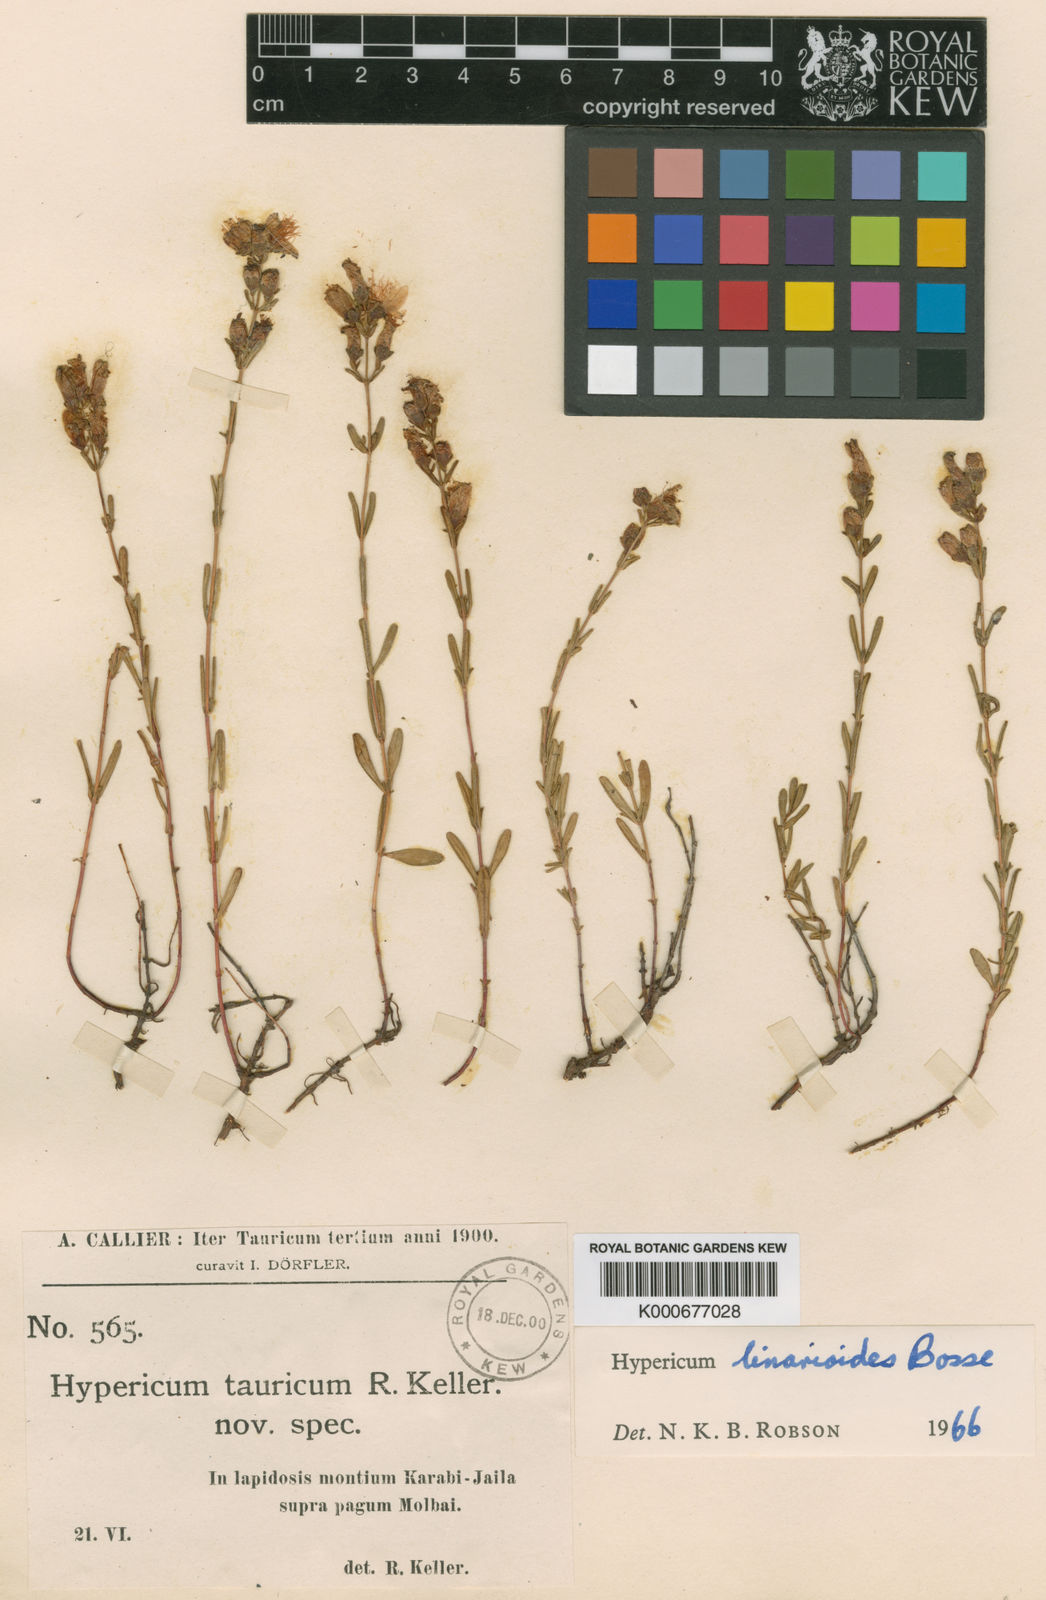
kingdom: Plantae
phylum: Tracheophyta
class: Magnoliopsida
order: Malpighiales
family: Hypericaceae
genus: Hypericum
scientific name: Hypericum linarioides
